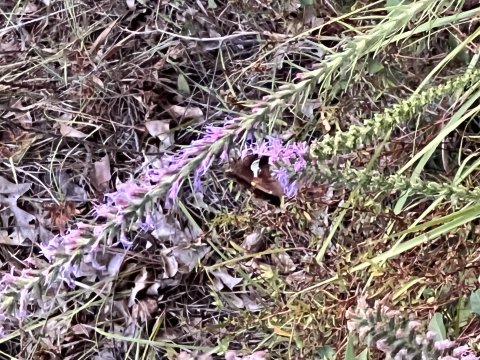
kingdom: Animalia
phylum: Arthropoda
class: Insecta
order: Lepidoptera
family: Hesperiidae
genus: Epargyreus
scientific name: Epargyreus clarus
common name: Silver-spotted Skipper
